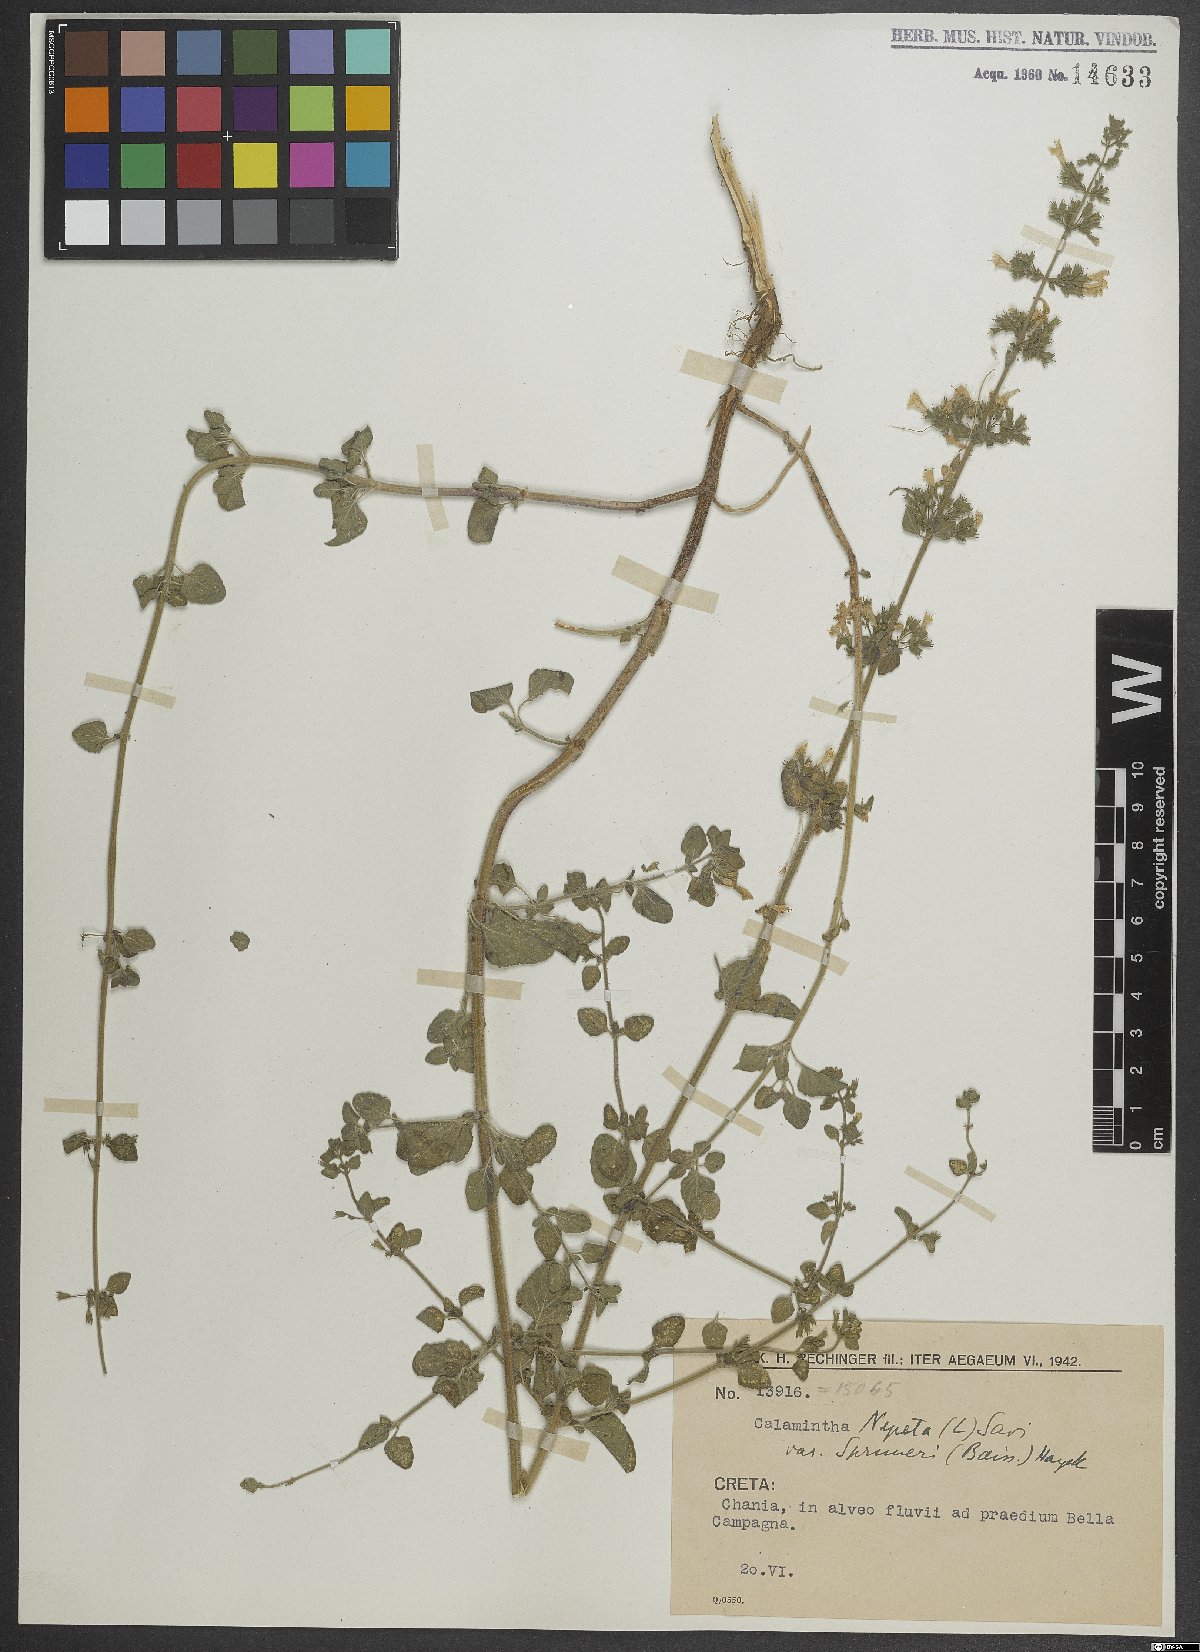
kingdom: Plantae
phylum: Tracheophyta
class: Magnoliopsida
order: Lamiales
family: Lamiaceae
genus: Clinopodium
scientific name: Clinopodium nepeta
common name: Lesser calamint
